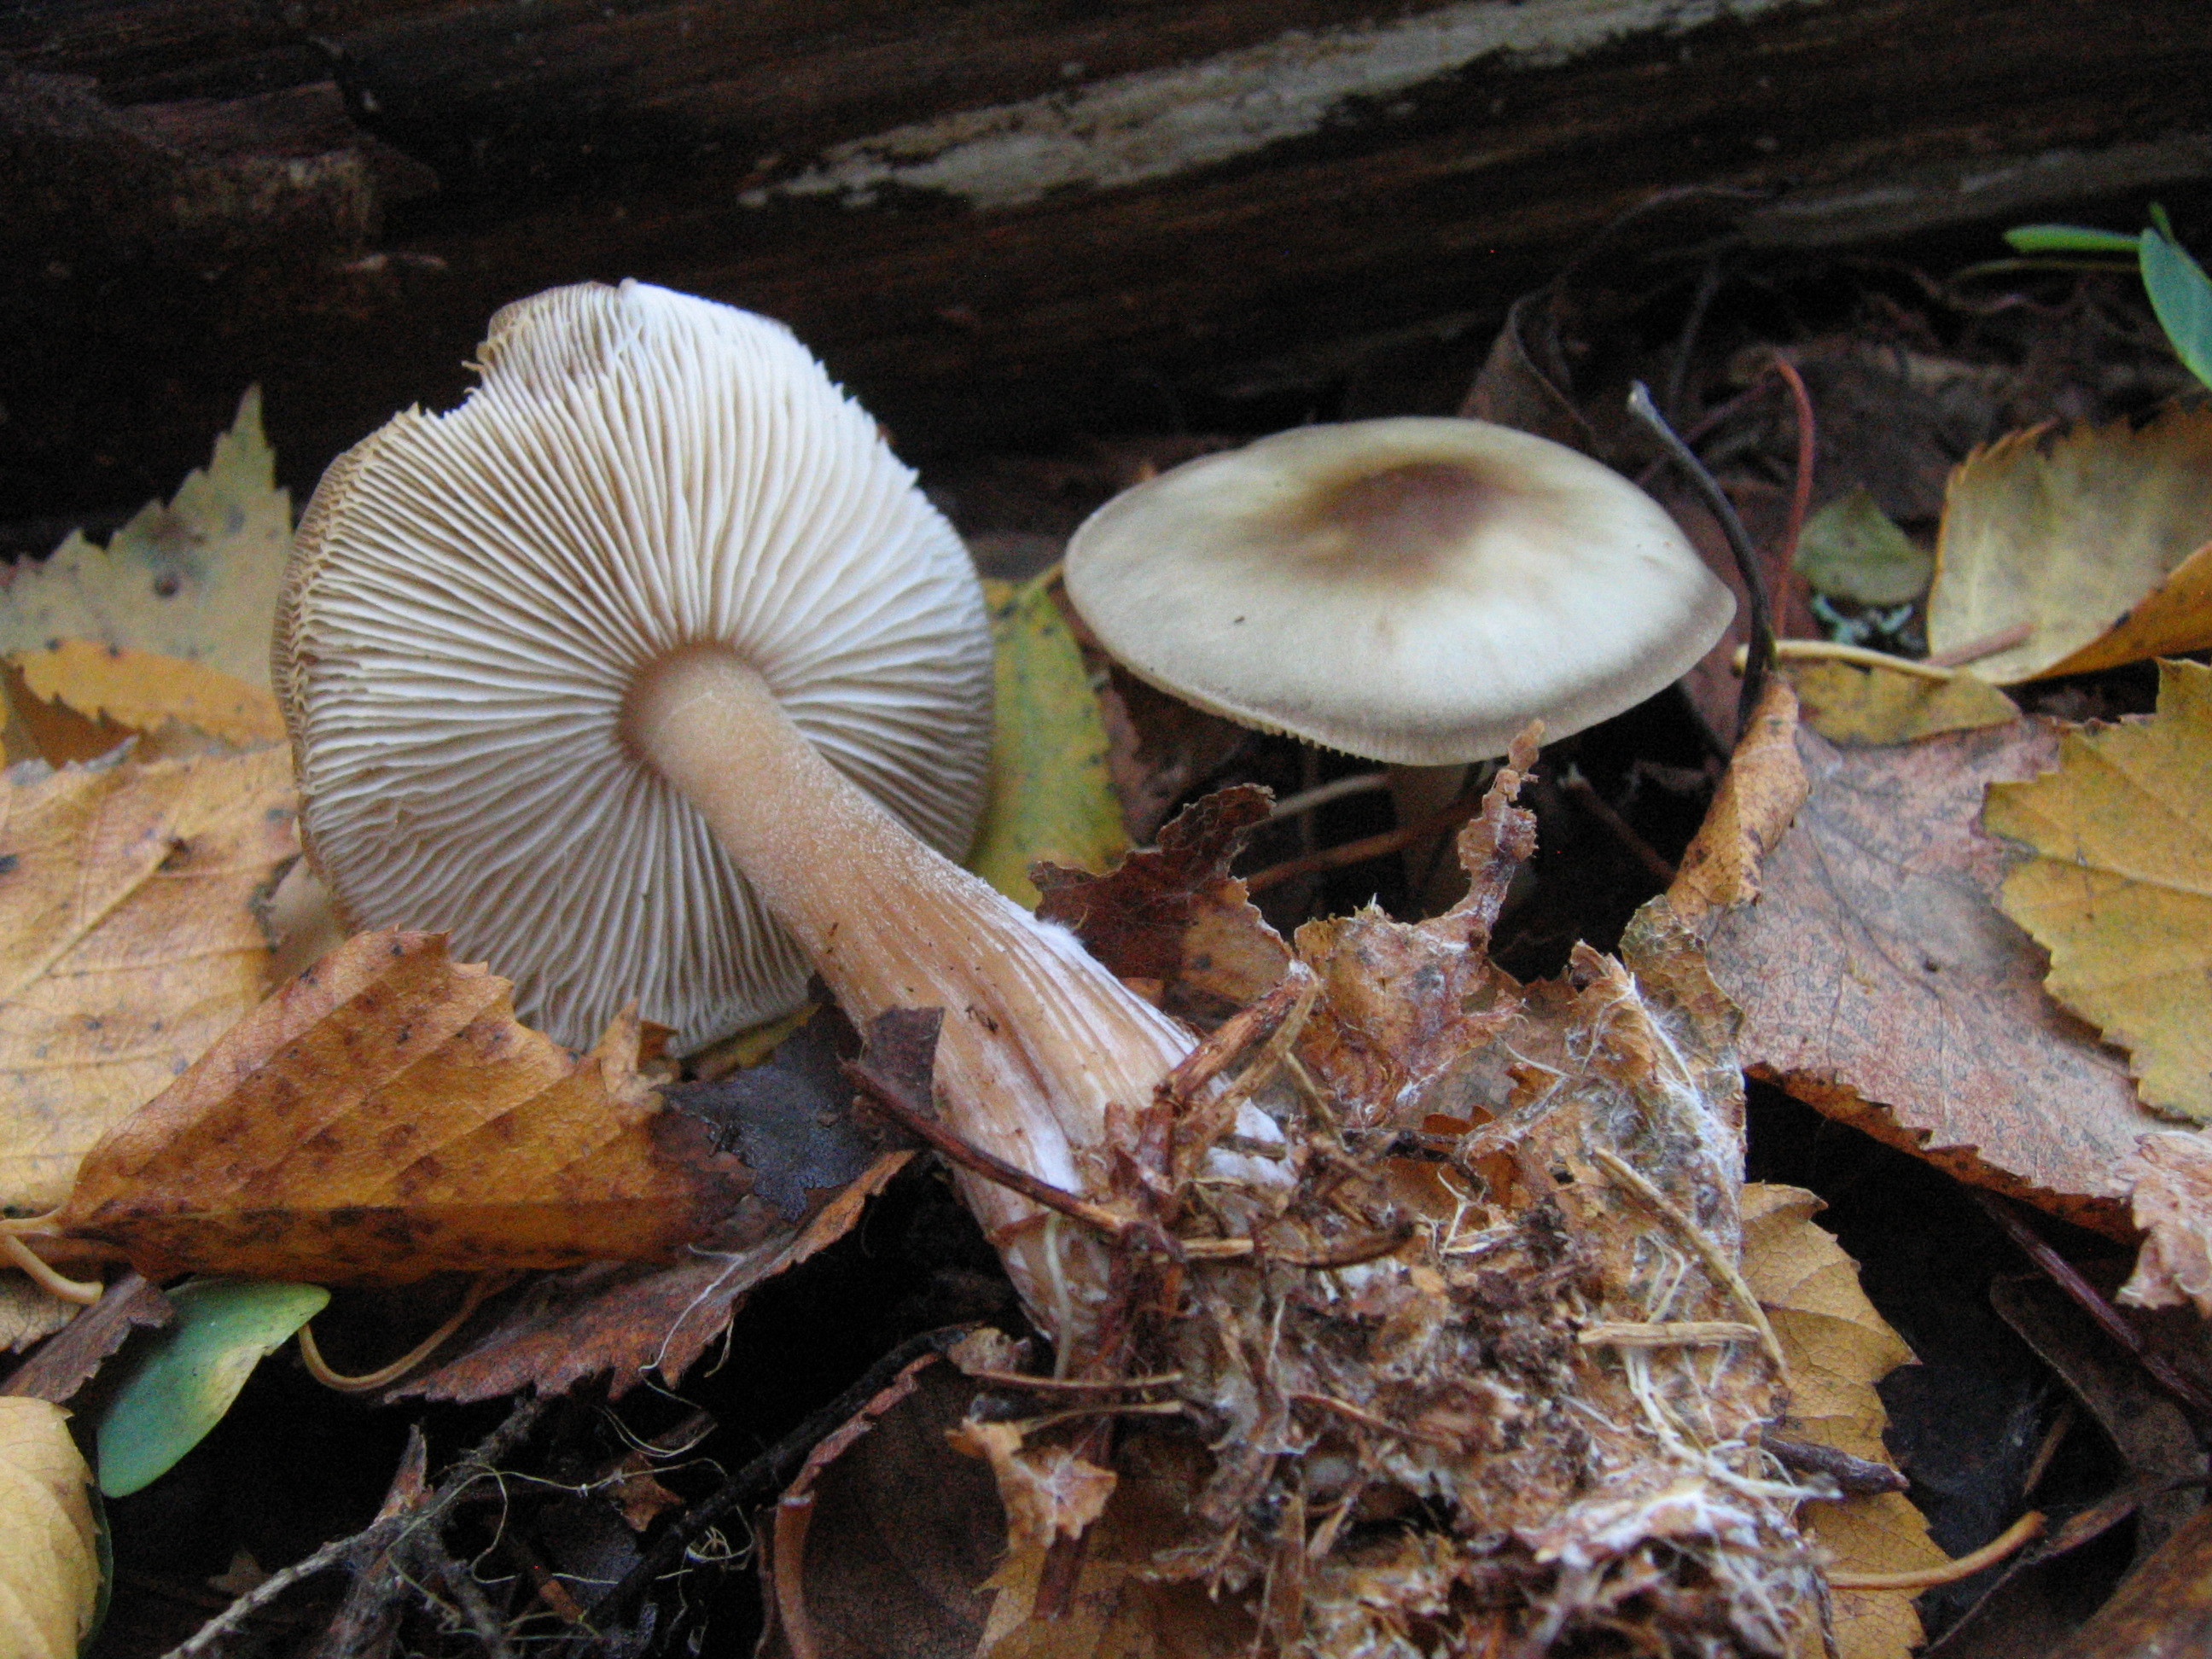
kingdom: Fungi
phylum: Basidiomycota
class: Agaricomycetes
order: Agaricales
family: Omphalotaceae
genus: Rhodocollybia
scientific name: Rhodocollybia asema
